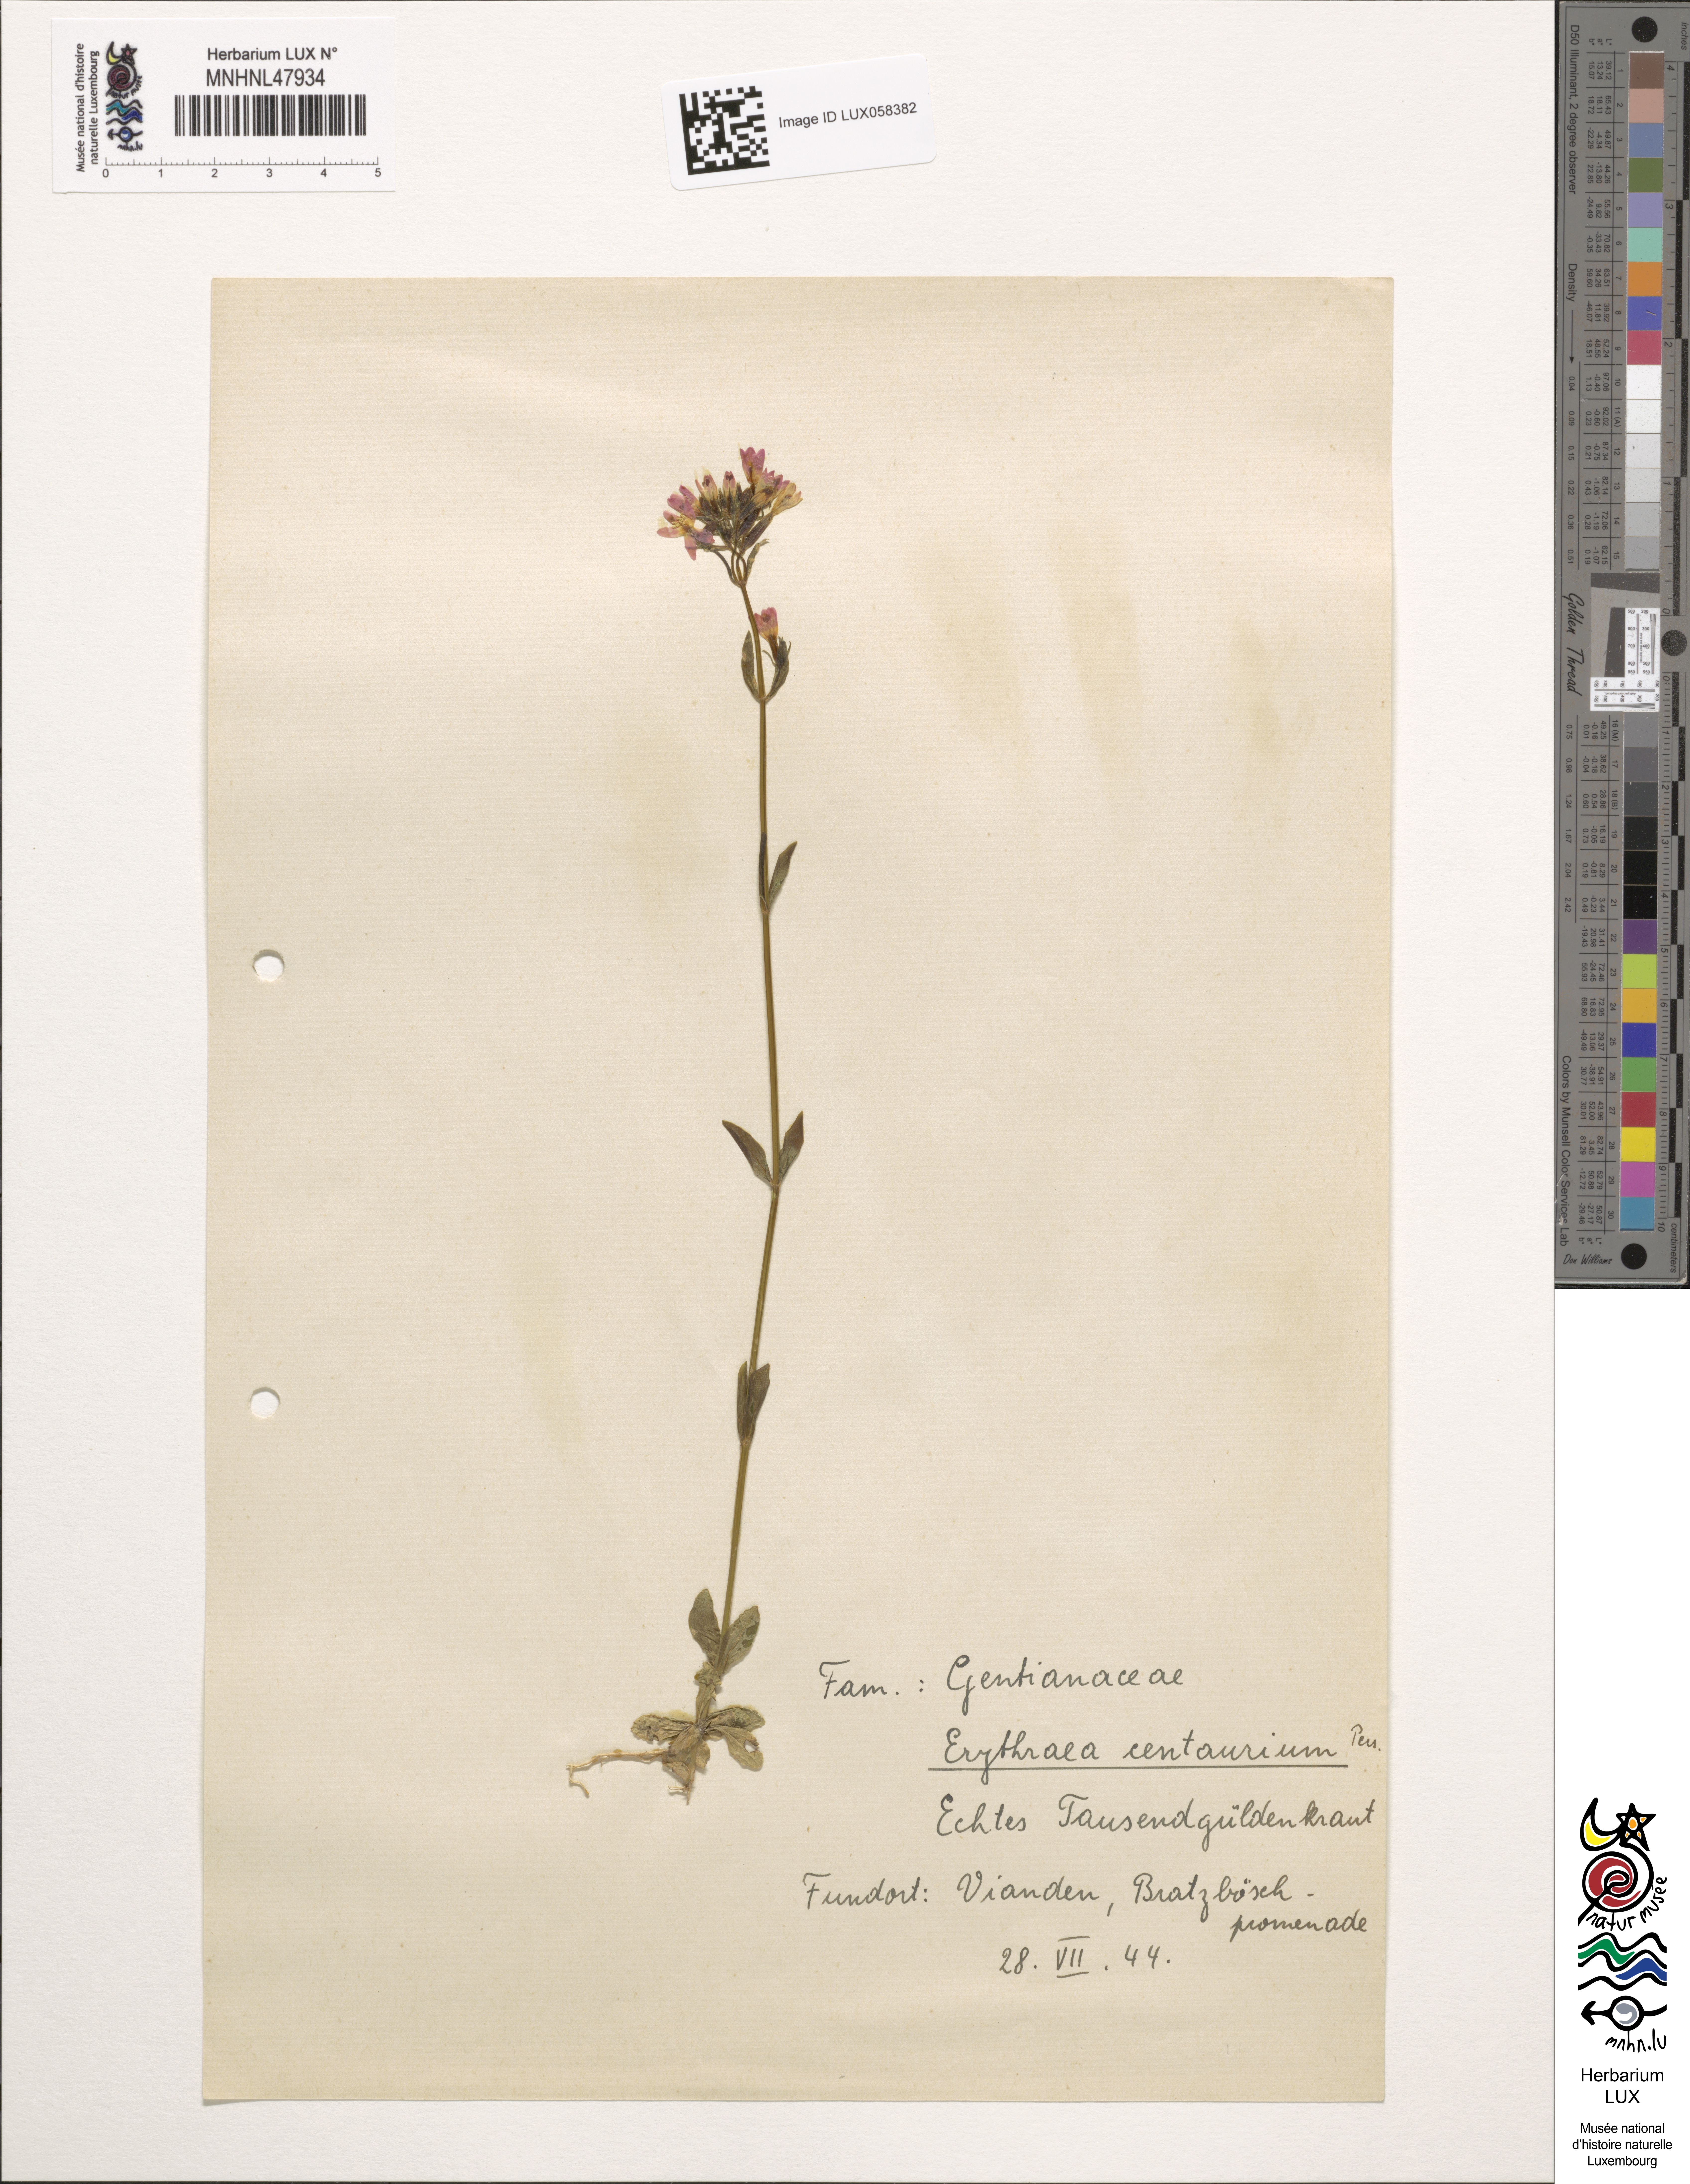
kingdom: Plantae
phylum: Tracheophyta
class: Magnoliopsida
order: Gentianales
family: Gentianaceae
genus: Centaurium
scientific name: Centaurium erythraea
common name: Common centaury
